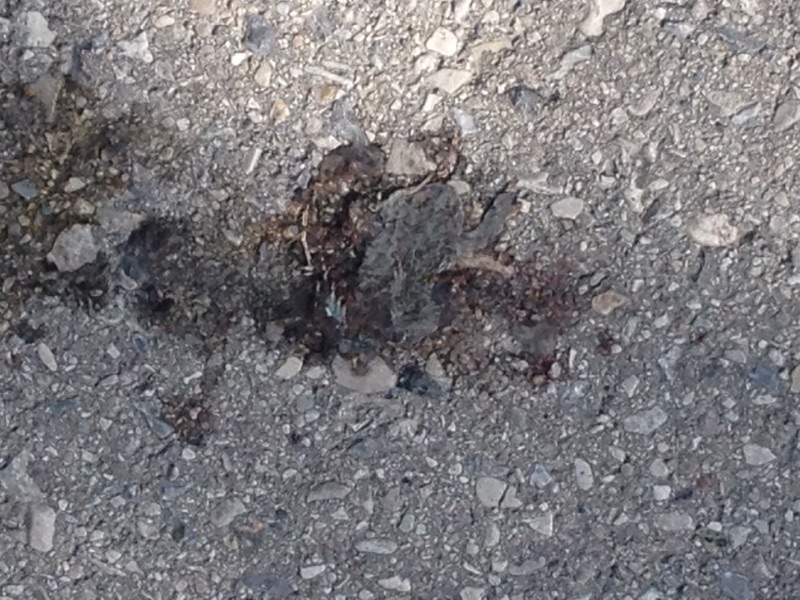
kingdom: Animalia
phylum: Chordata
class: Amphibia
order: Anura
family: Bufonidae
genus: Bufotes
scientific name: Bufotes viridis
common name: European green toad
